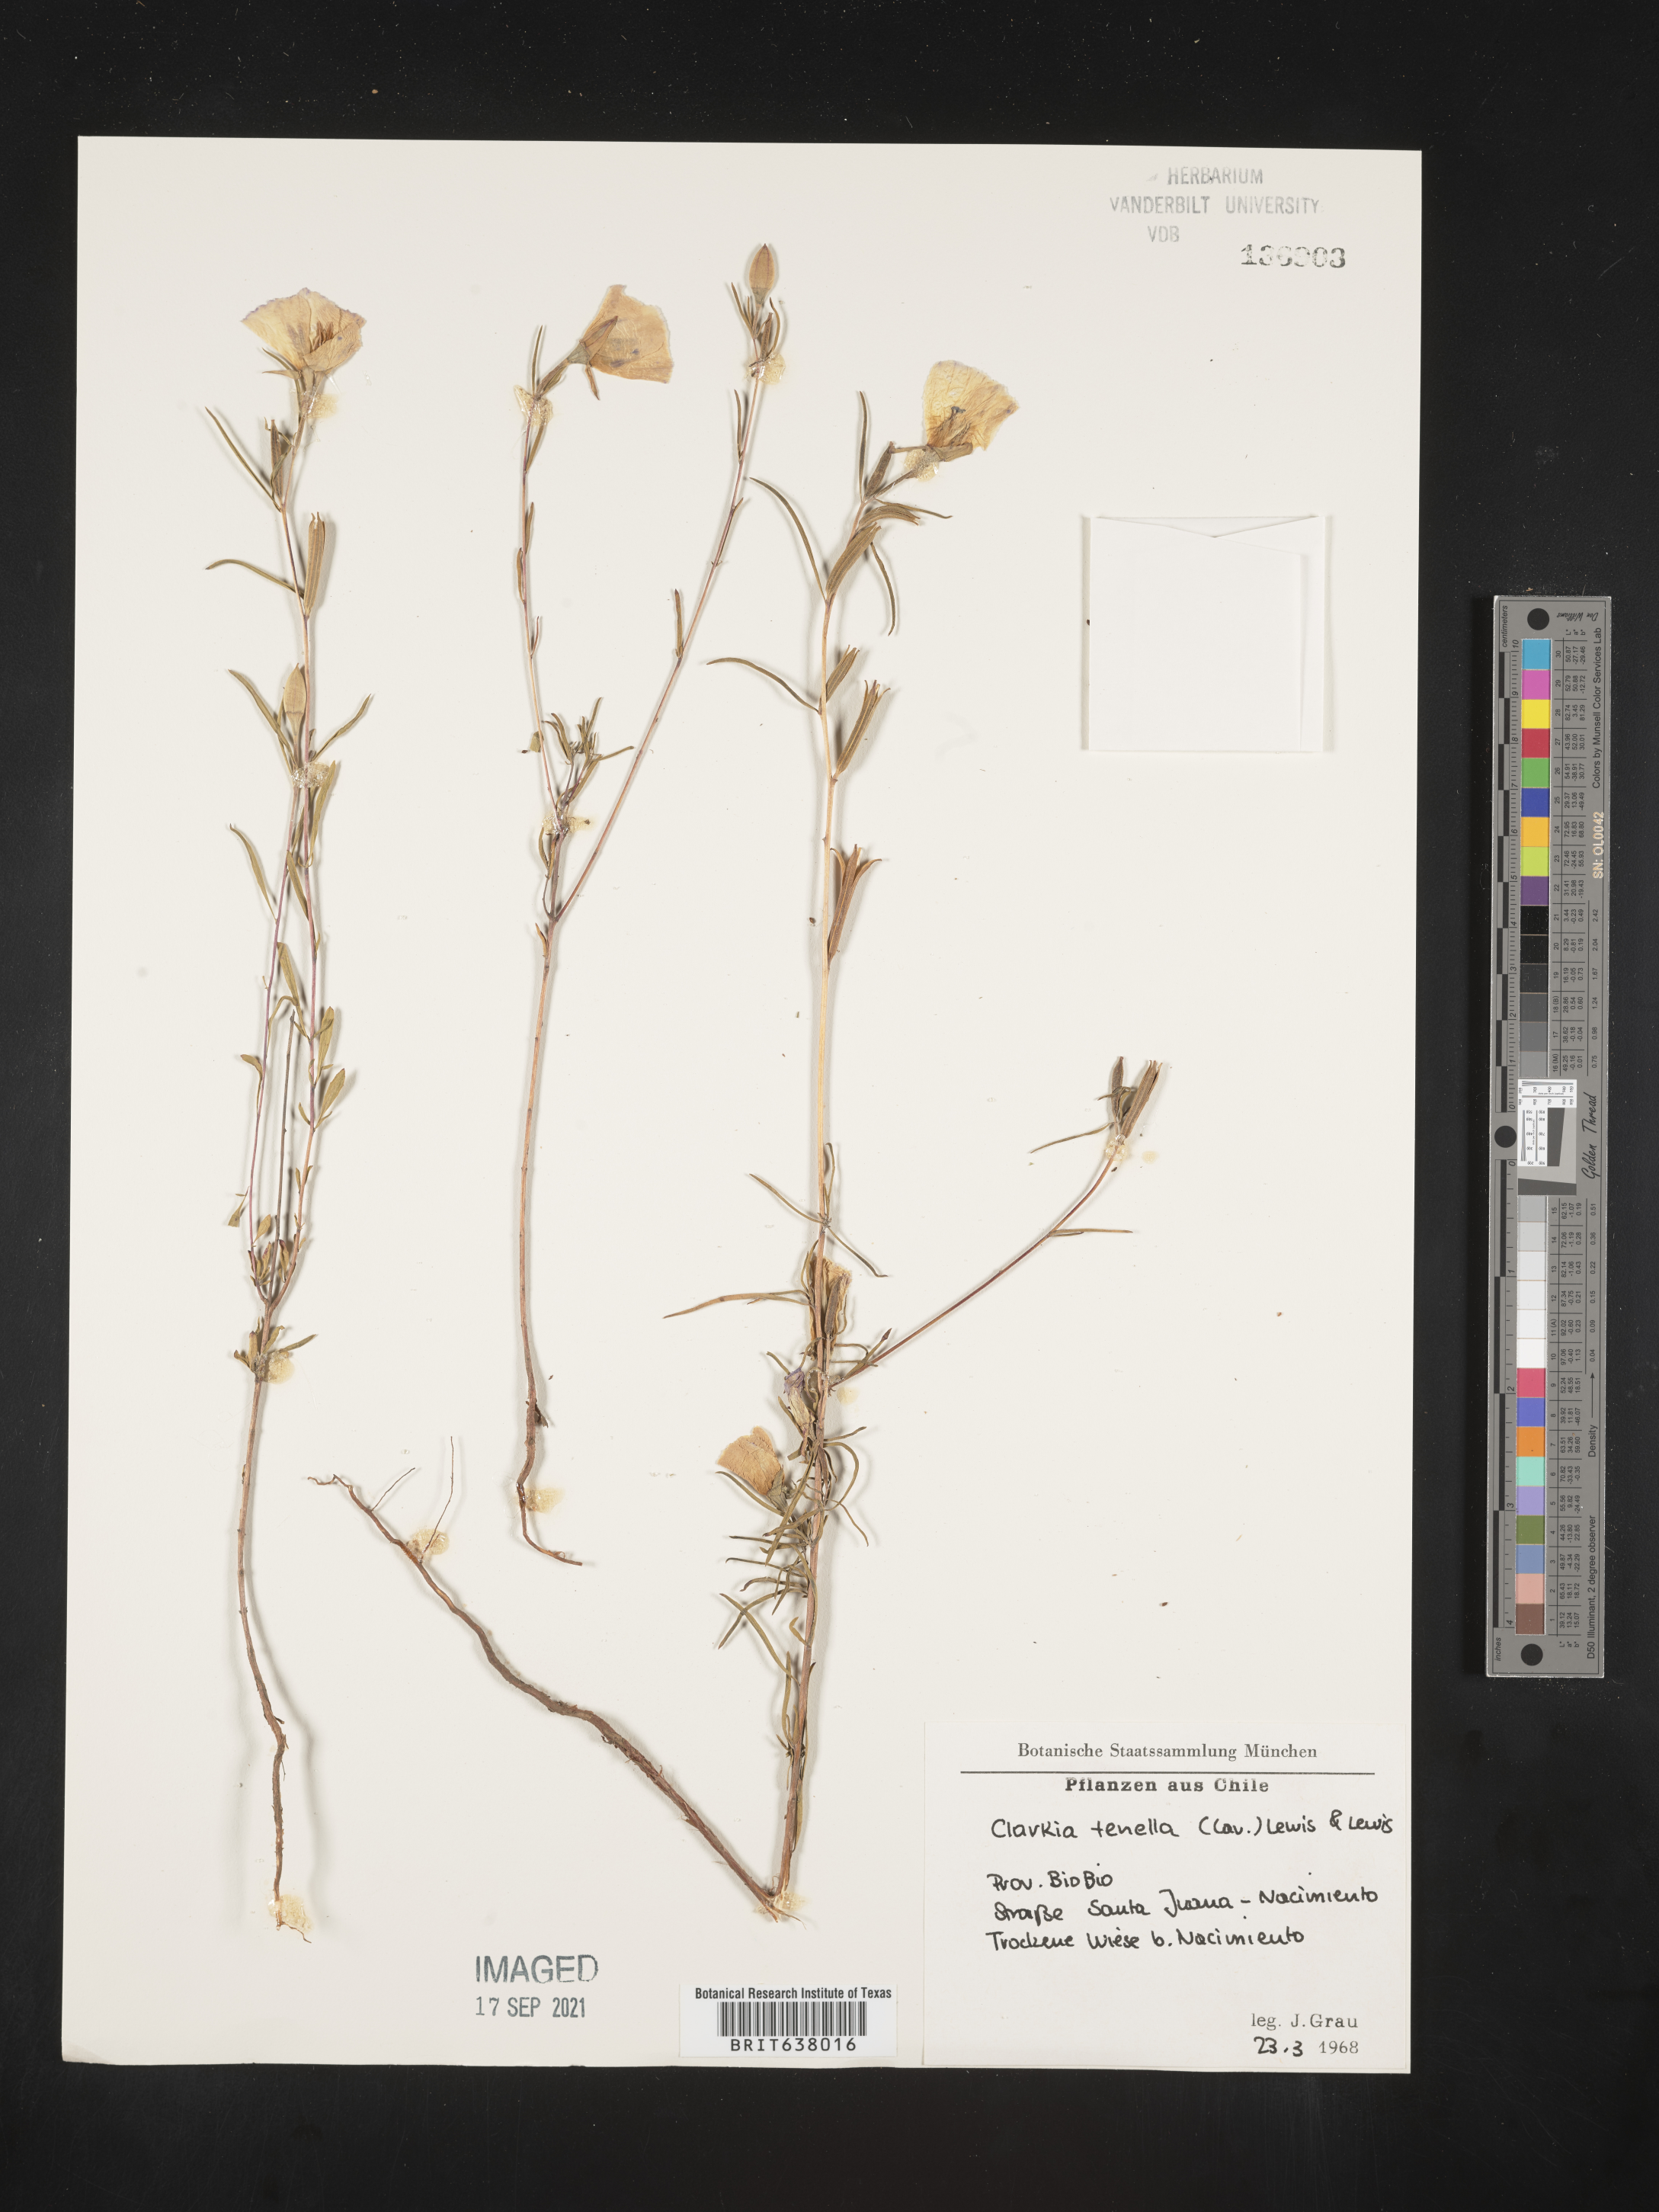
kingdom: Plantae
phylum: Tracheophyta
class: Magnoliopsida
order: Myrtales
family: Onagraceae
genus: Clarkia
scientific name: Clarkia
